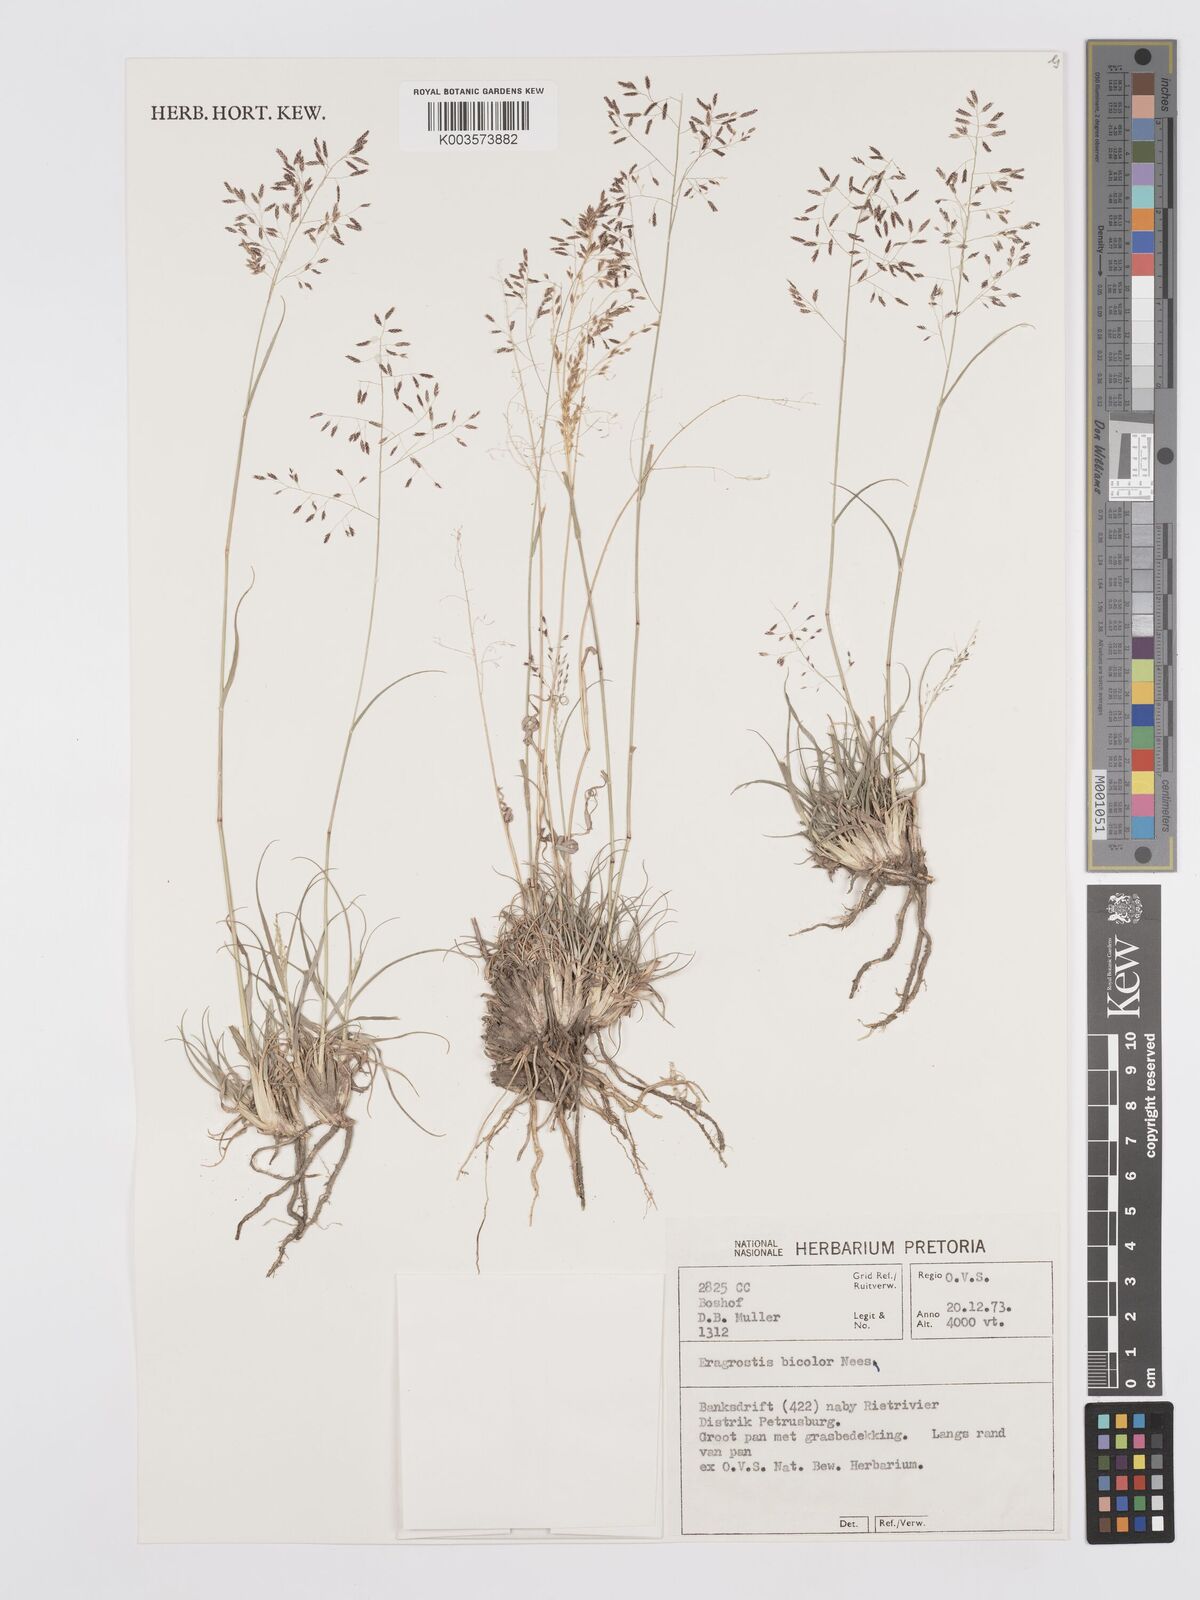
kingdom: Plantae
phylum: Tracheophyta
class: Liliopsida
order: Poales
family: Poaceae
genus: Eragrostis
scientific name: Eragrostis
